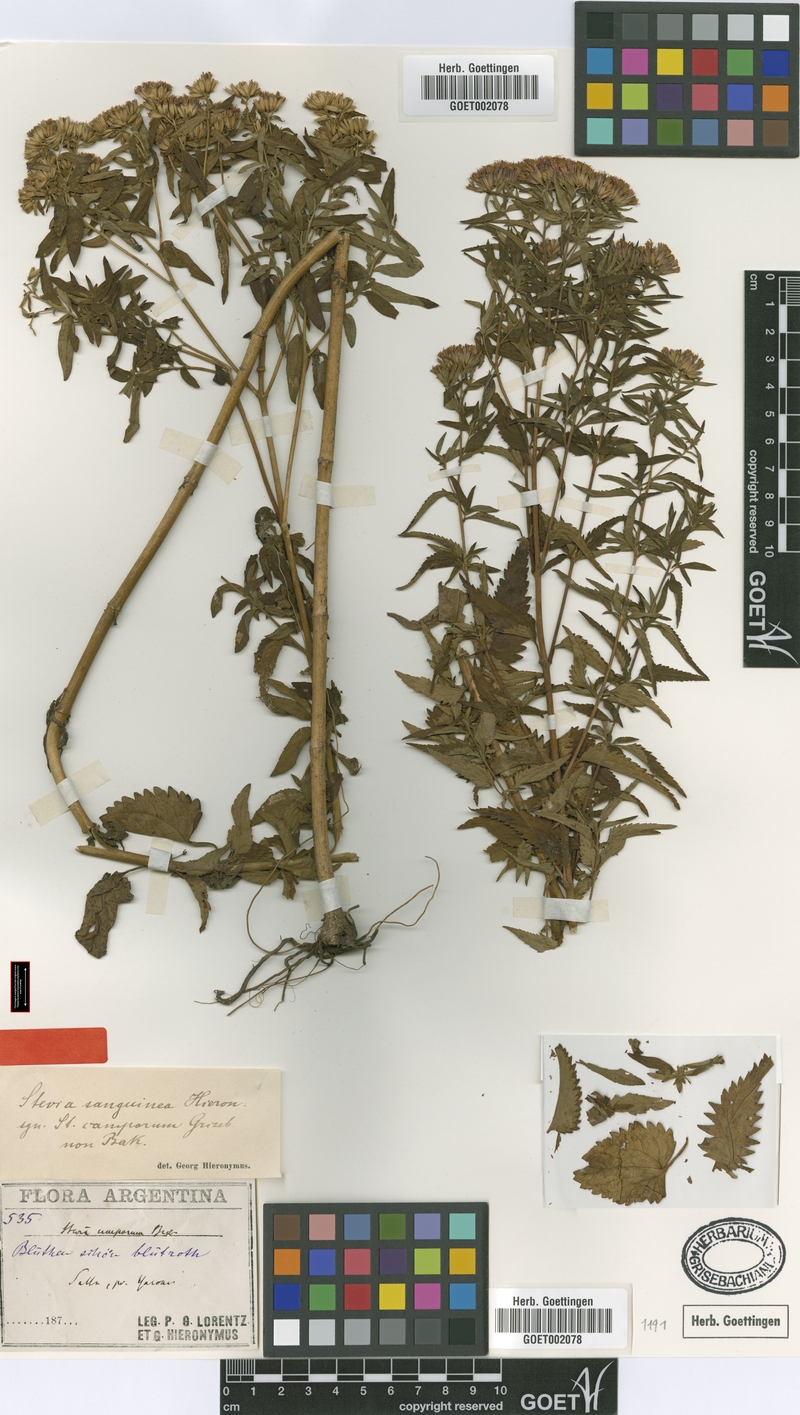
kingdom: Plantae
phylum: Tracheophyta
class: Magnoliopsida
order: Asterales
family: Asteraceae
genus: Stevia
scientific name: Stevia sanguinea
